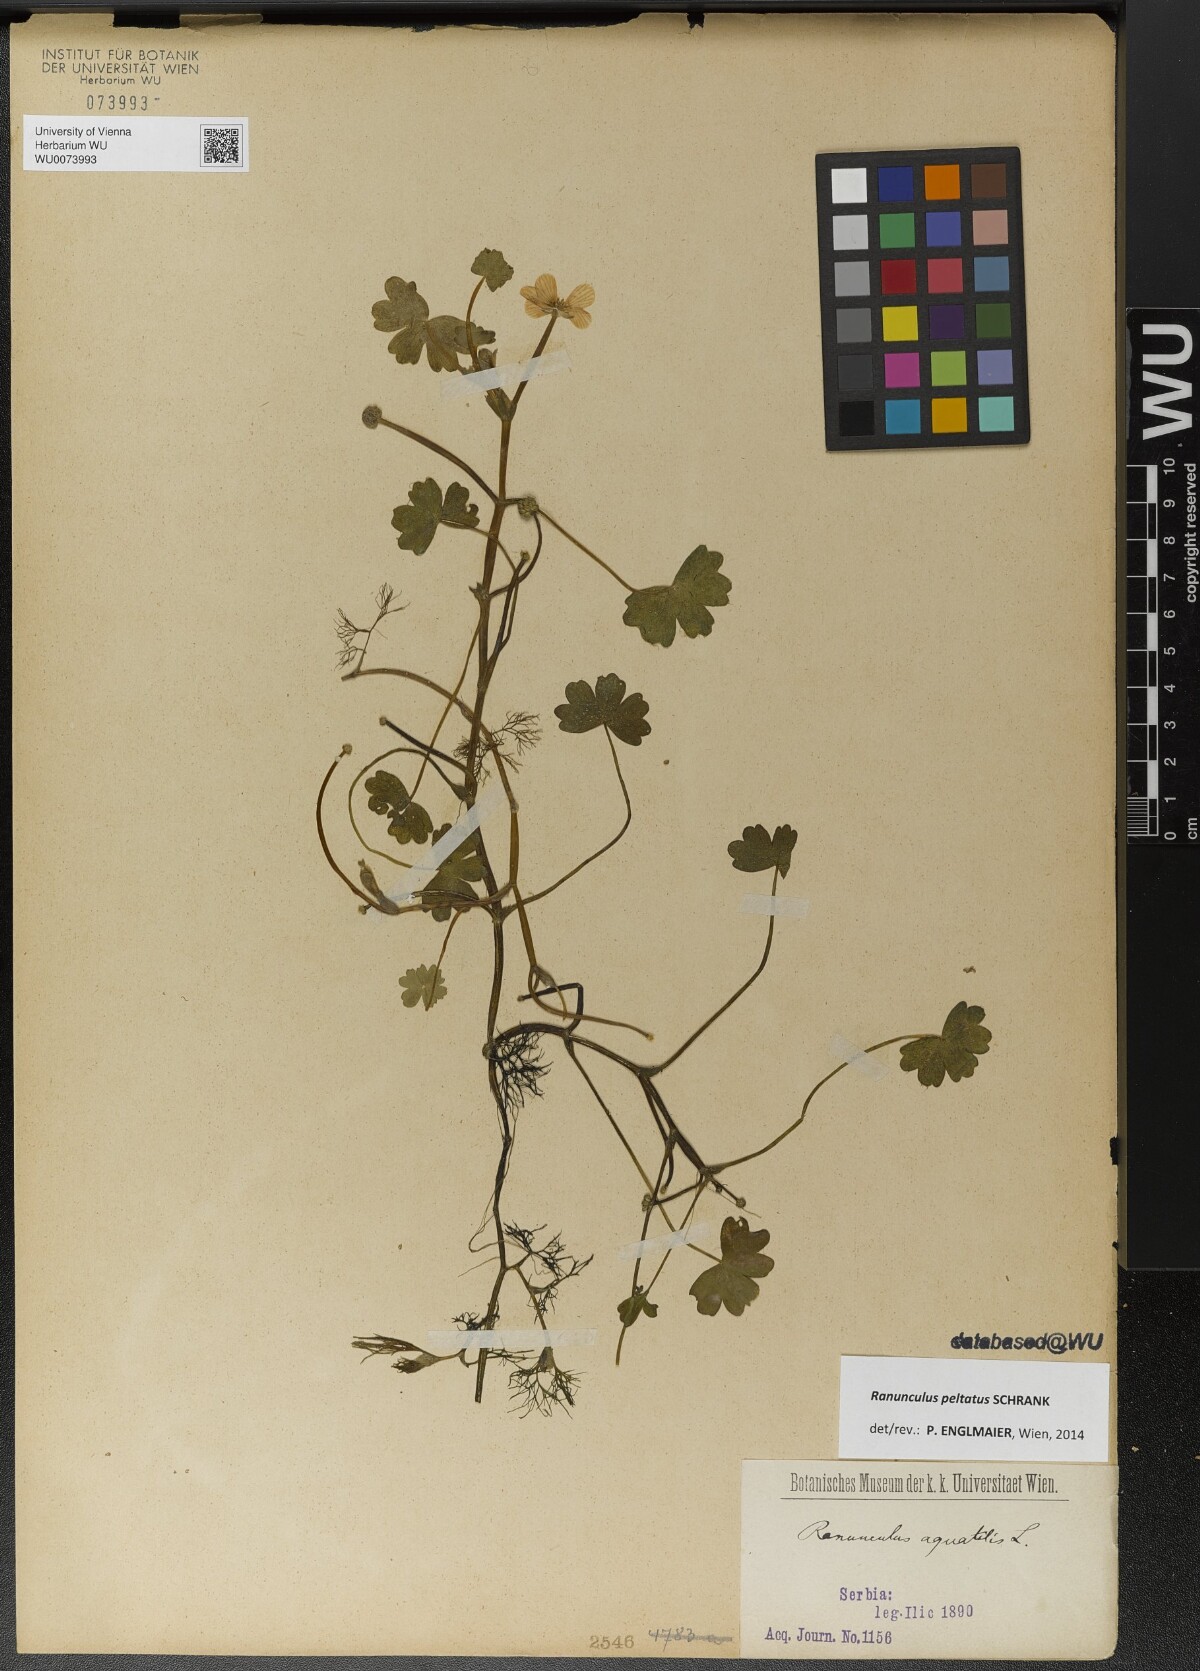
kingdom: Plantae
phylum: Tracheophyta
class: Magnoliopsida
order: Ranunculales
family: Ranunculaceae
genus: Ranunculus
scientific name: Ranunculus peltatus
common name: Pond water-crowfoot
